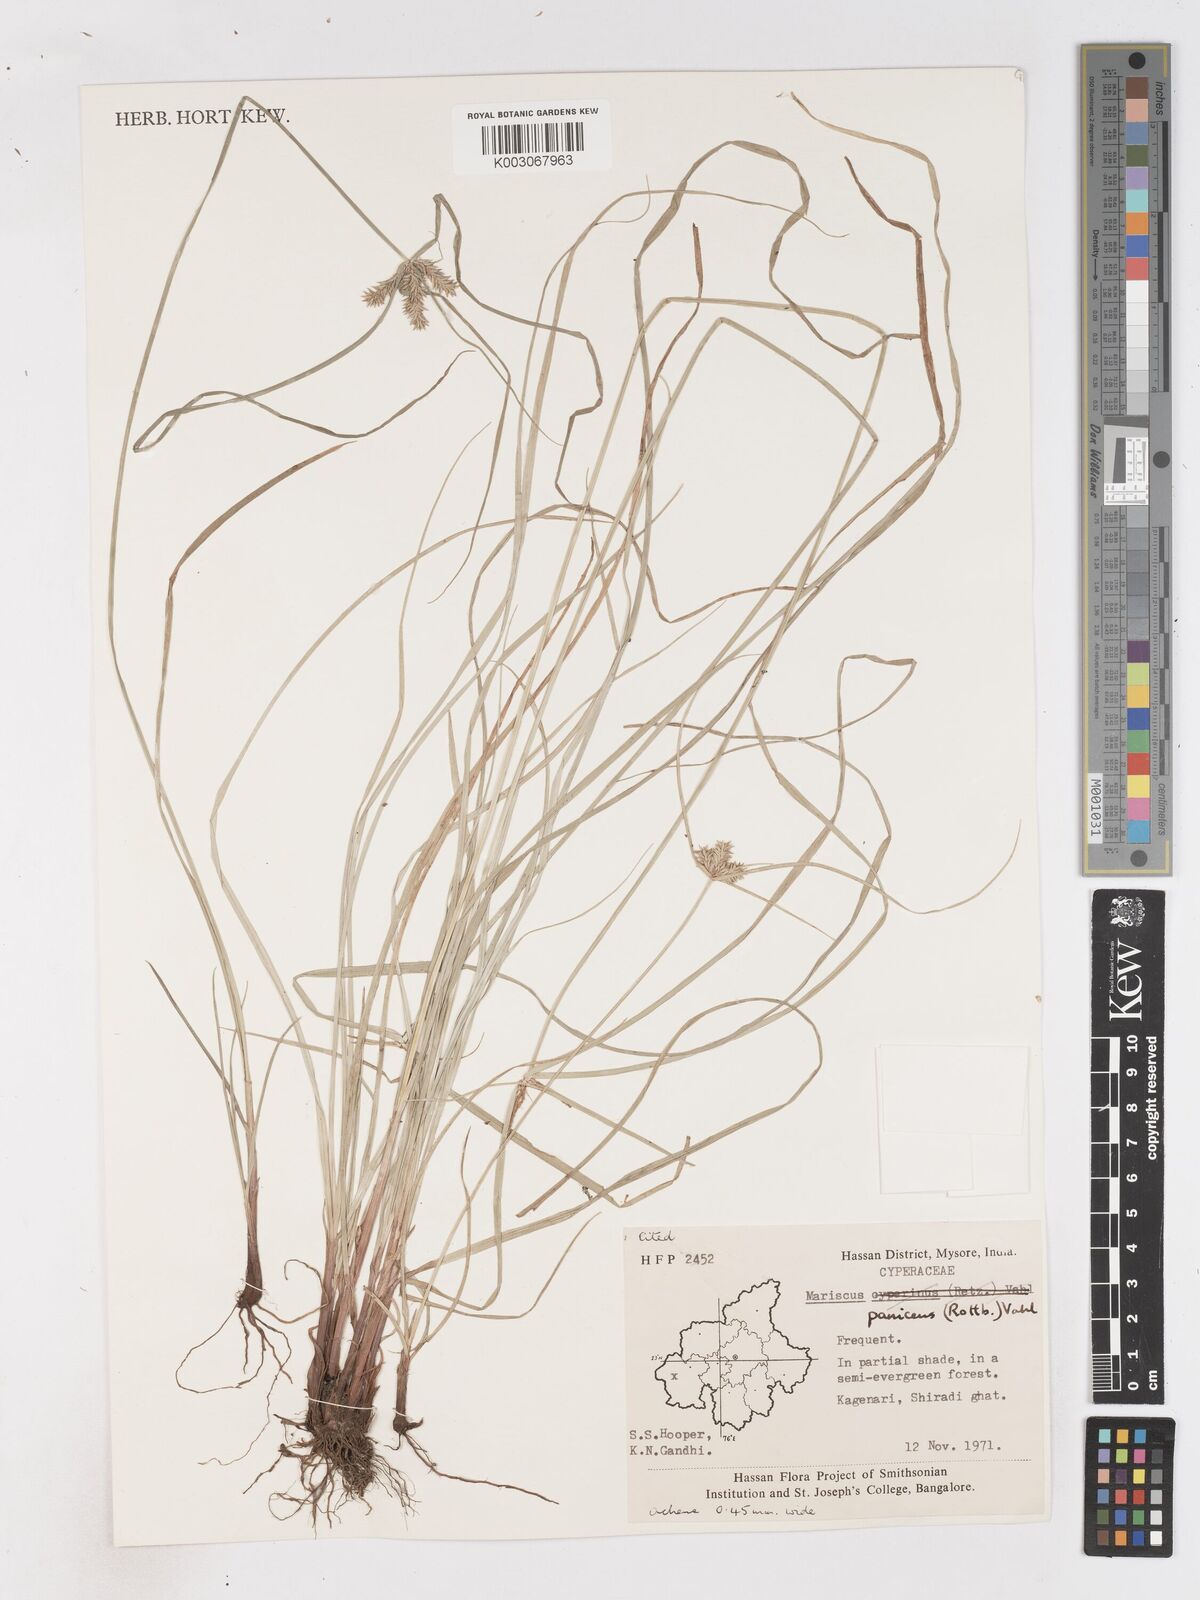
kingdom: Plantae
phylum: Tracheophyta
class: Liliopsida
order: Poales
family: Cyperaceae
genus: Cyperus
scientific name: Cyperus paniceus
